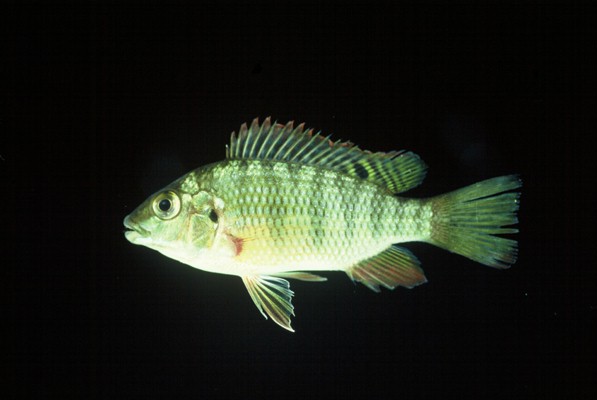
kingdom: Animalia
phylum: Chordata
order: Perciformes
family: Cichlidae
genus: Coptodon
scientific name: Coptodon rendalli
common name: Redbreast tilapia
